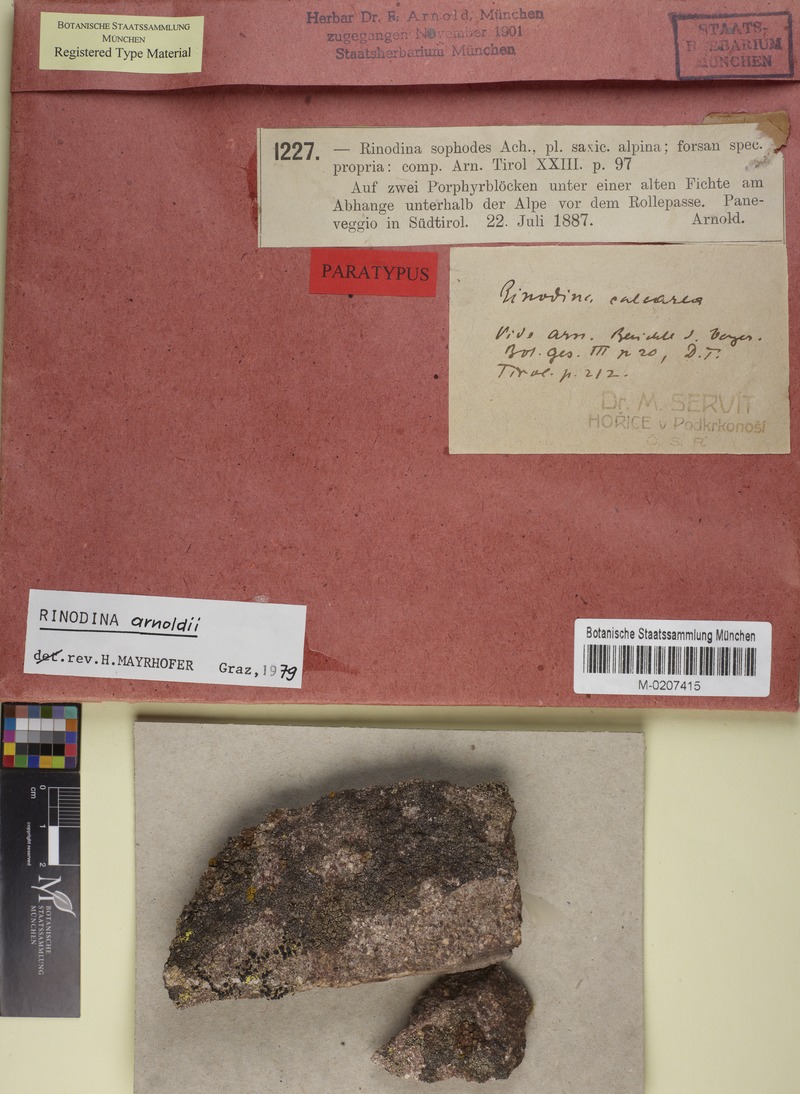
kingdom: Fungi
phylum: Ascomycota
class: Lecanoromycetes
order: Caliciales
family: Physciaceae
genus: Rinodina
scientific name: Rinodina arnoldii
